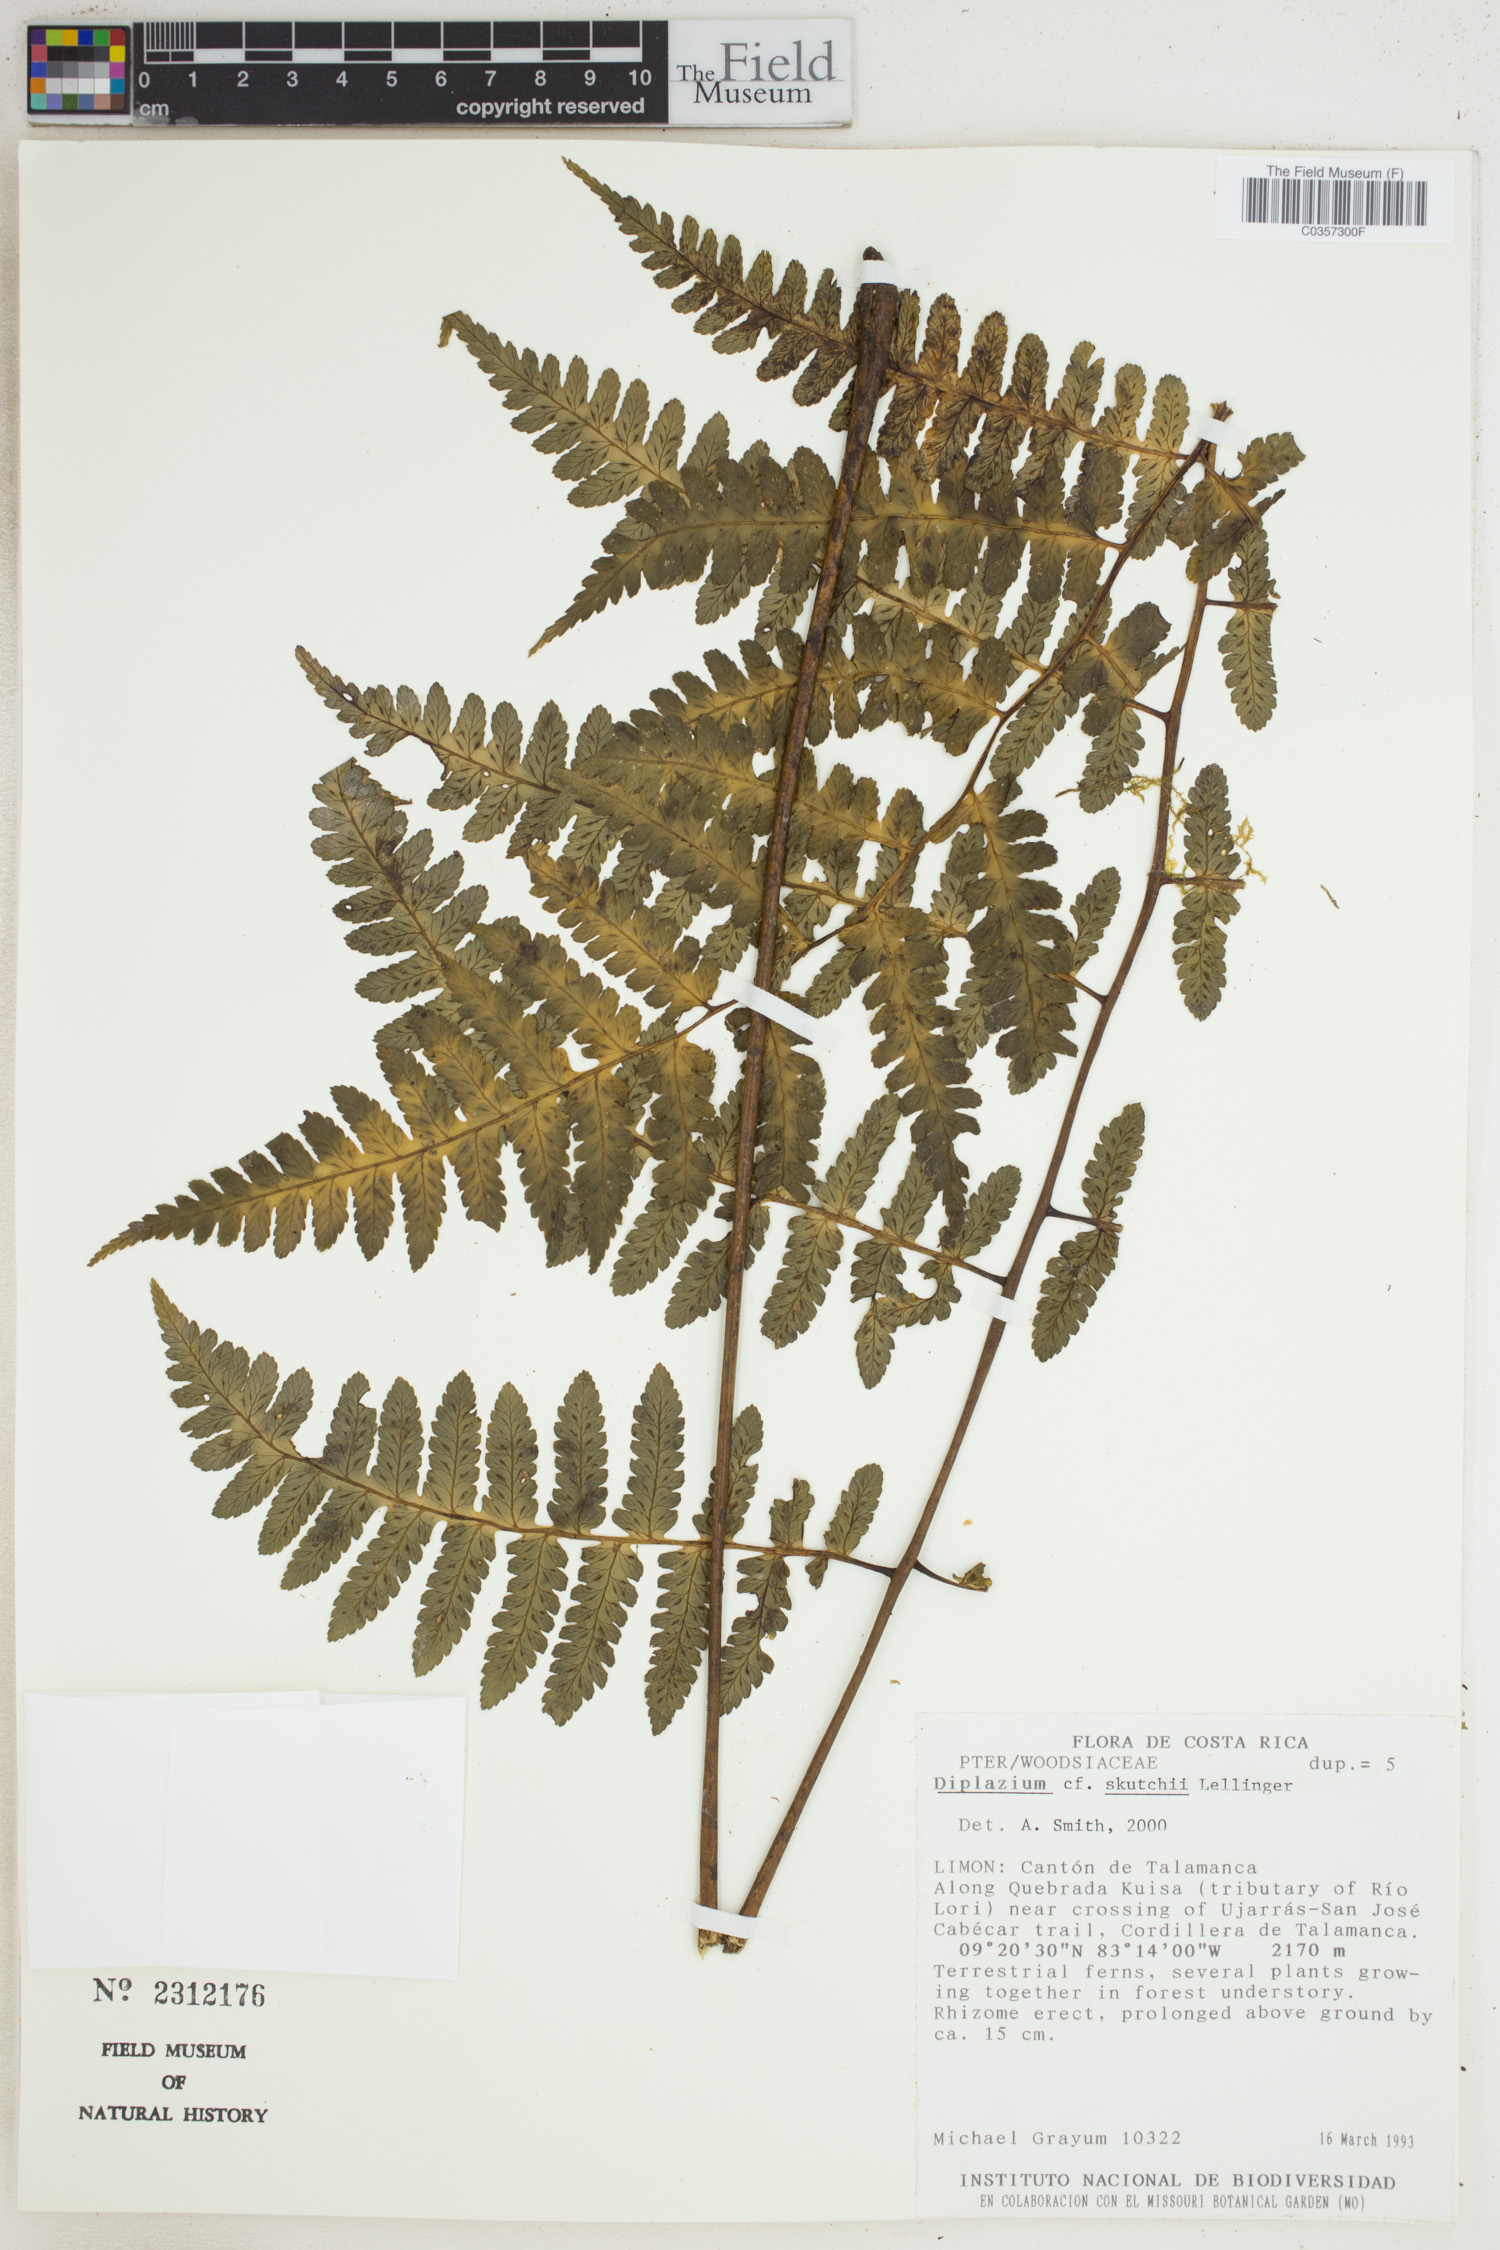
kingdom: Plantae
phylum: Tracheophyta
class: Polypodiopsida
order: Polypodiales
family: Athyriaceae
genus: Diplazium
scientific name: Diplazium skutchii
